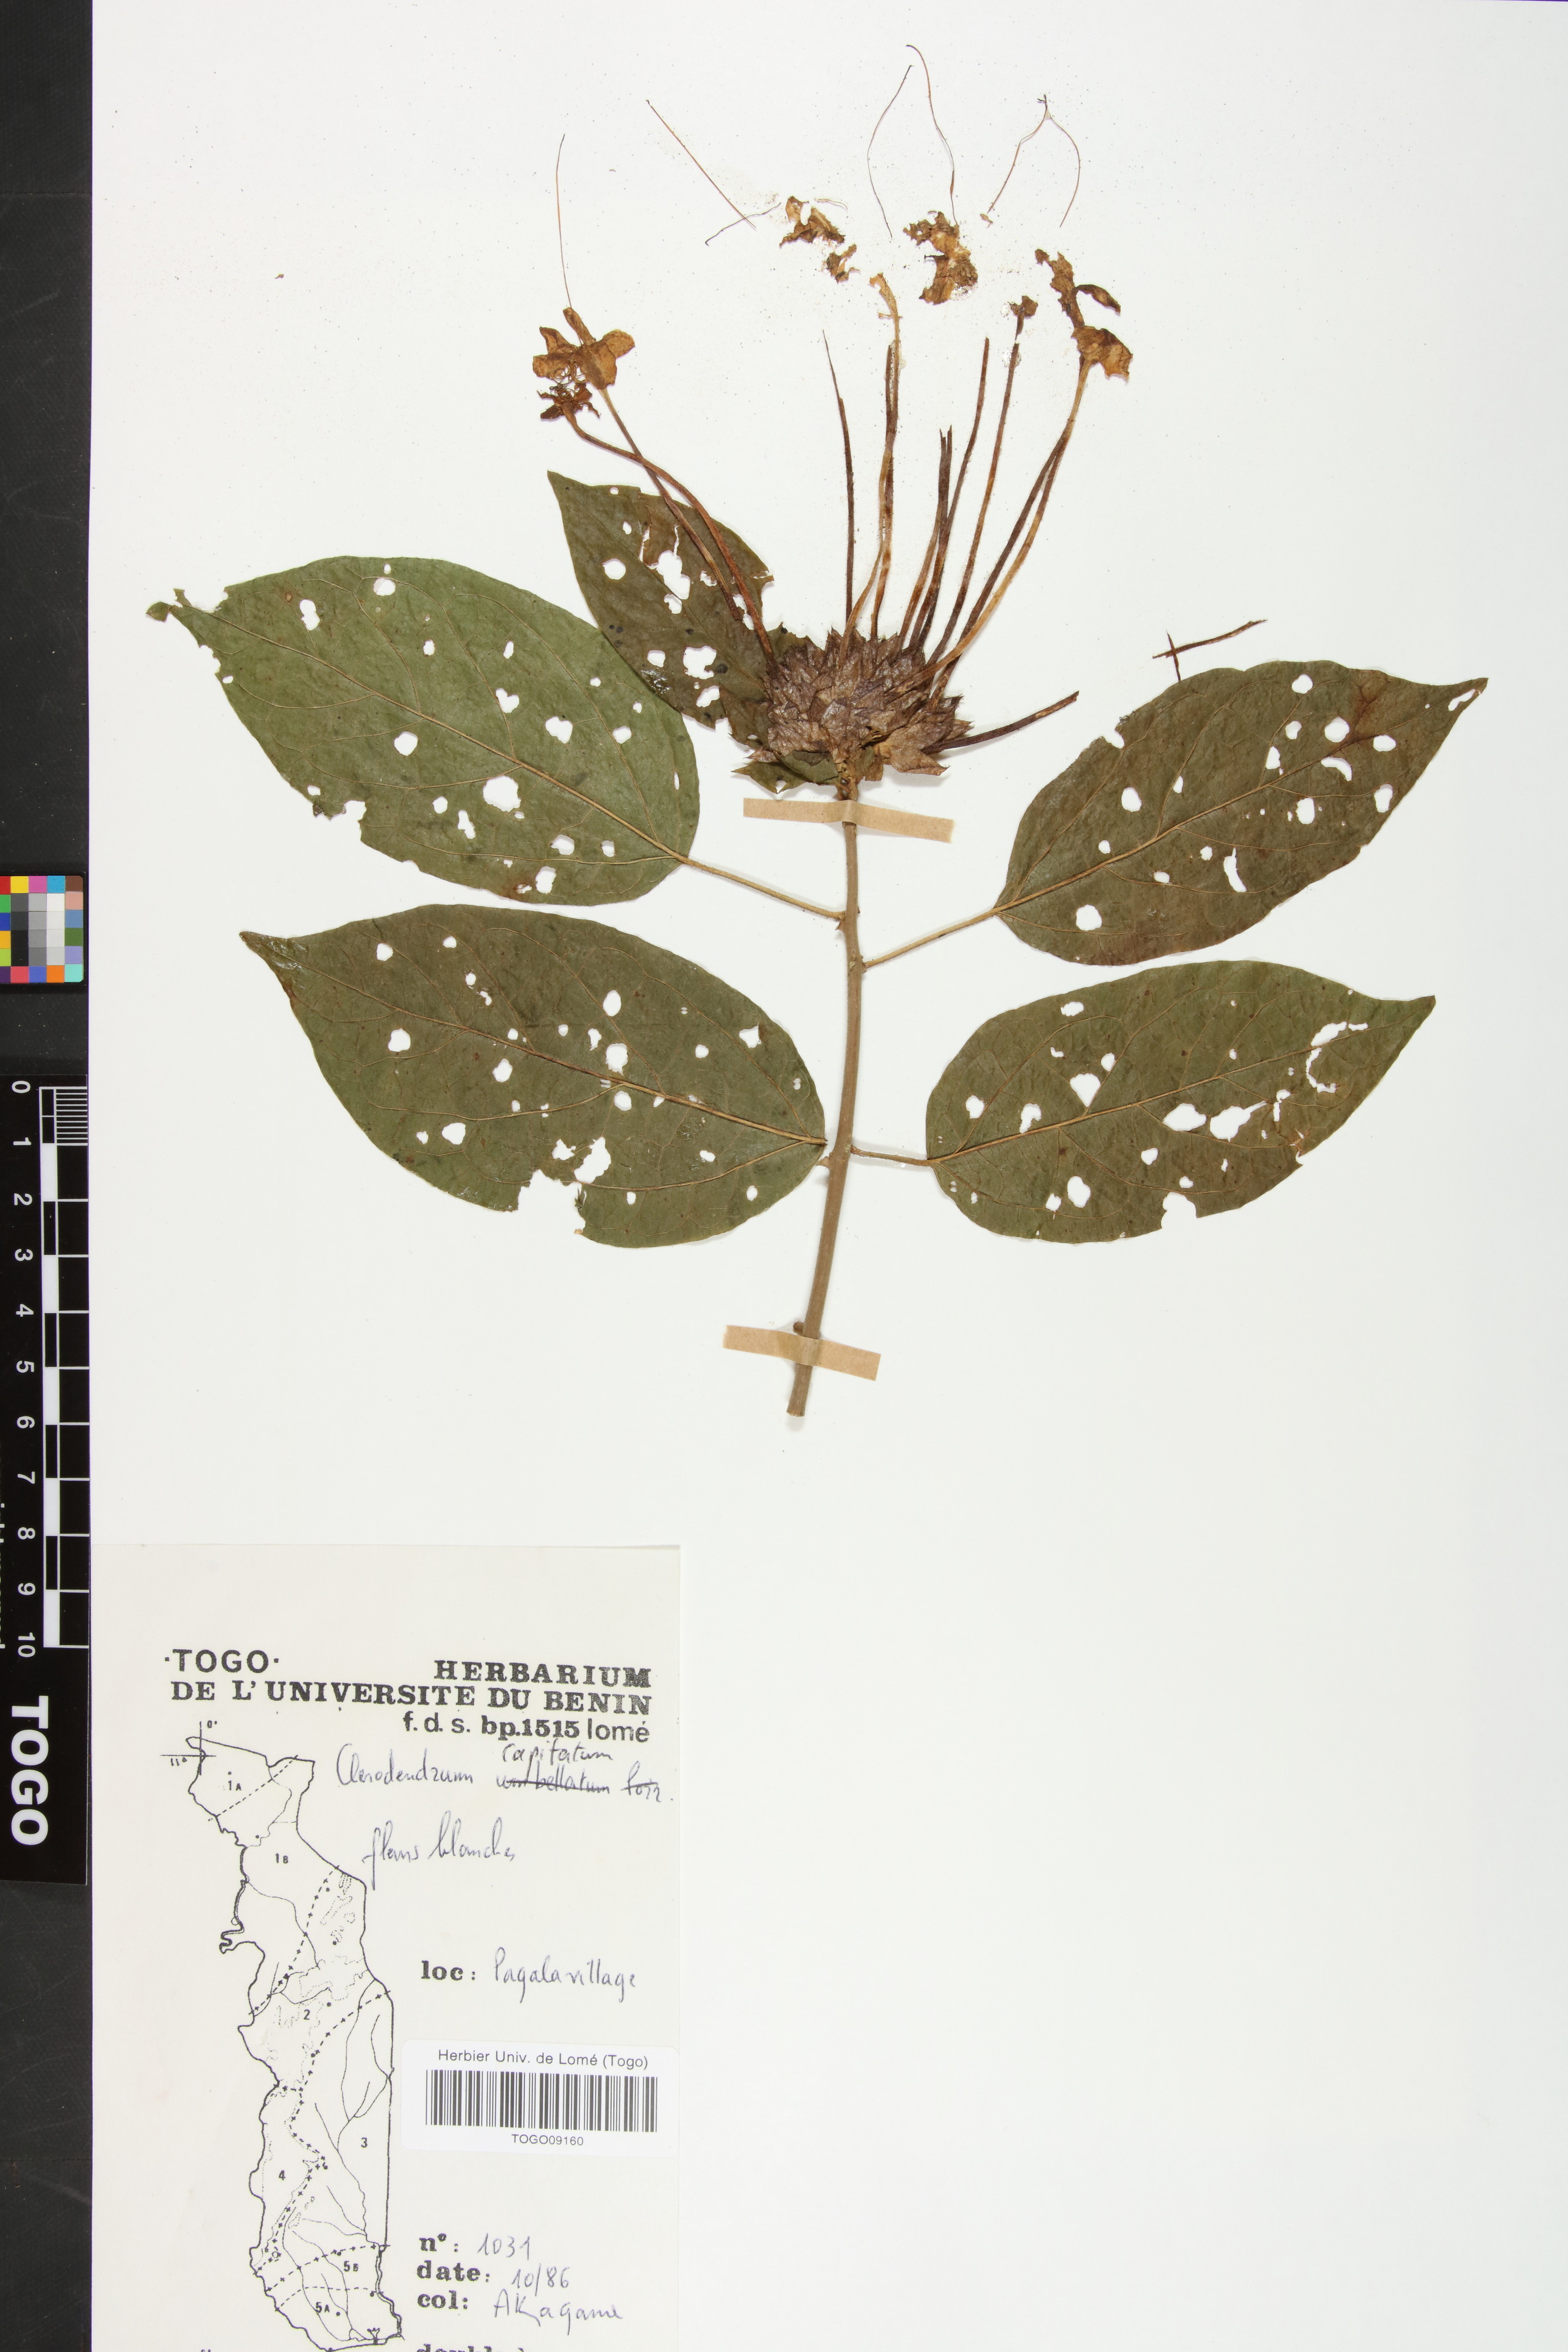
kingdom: Plantae
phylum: Tracheophyta
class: Magnoliopsida
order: Lamiales
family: Lamiaceae
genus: Clerodendrum
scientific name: Clerodendrum
